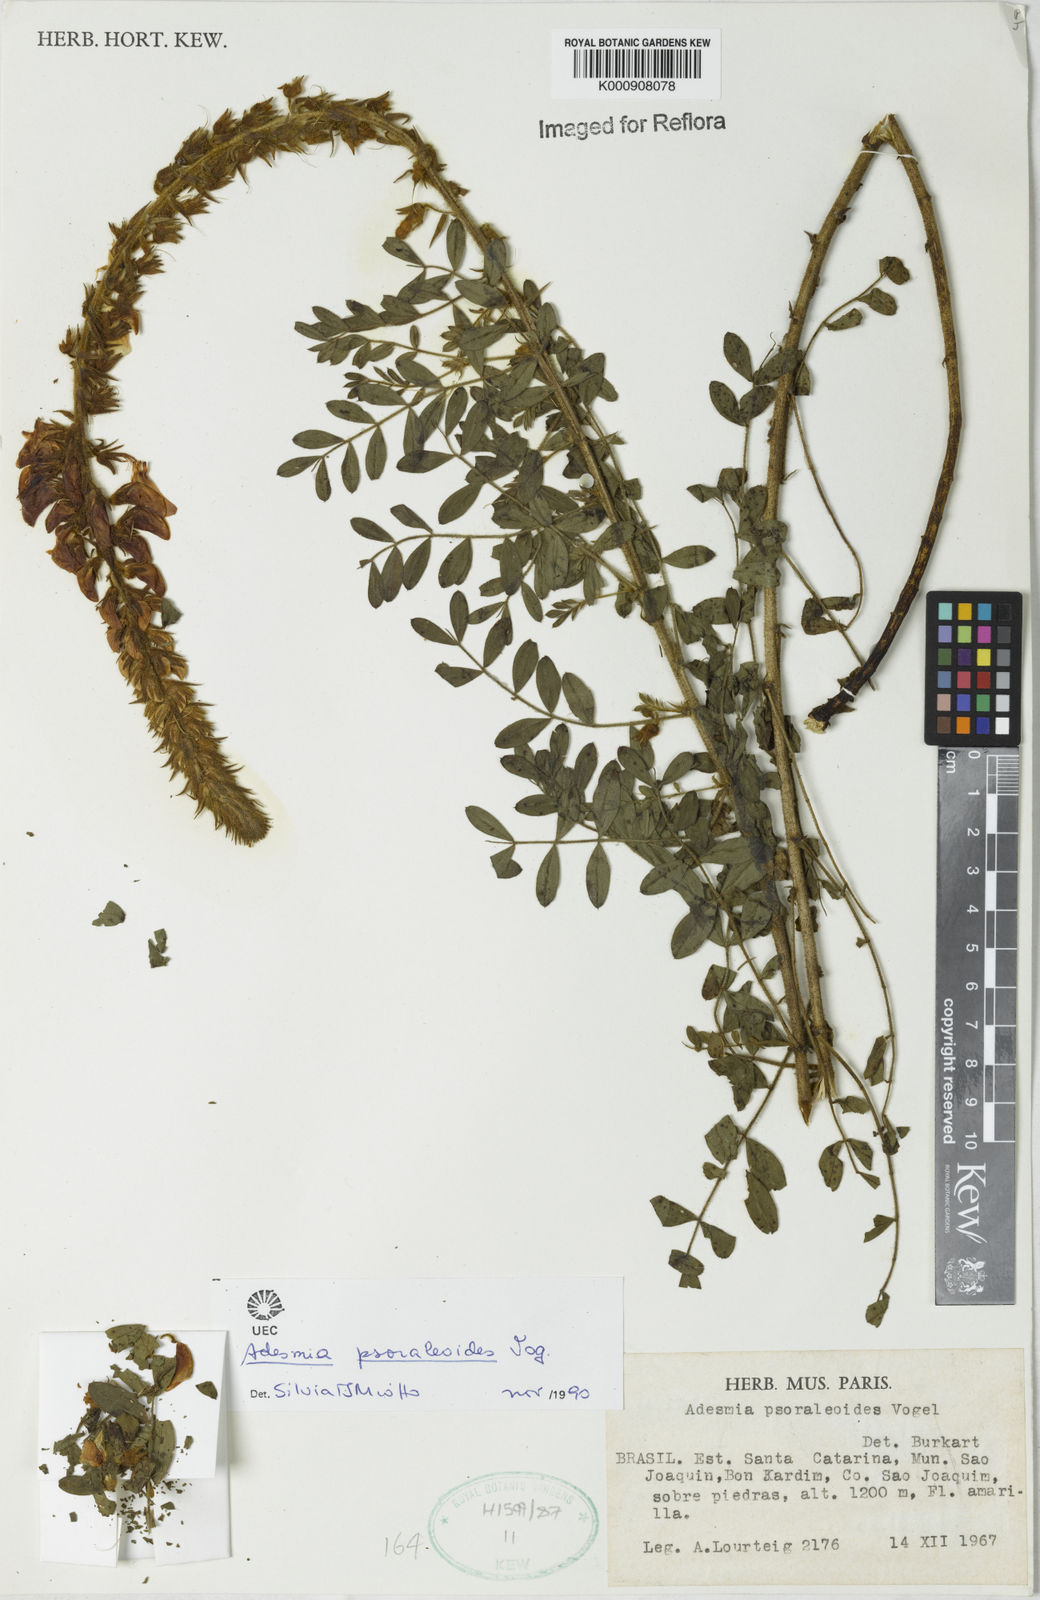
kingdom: Plantae
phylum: Tracheophyta
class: Magnoliopsida
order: Fabales
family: Fabaceae
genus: Adesmia
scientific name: Adesmia psoraleoides
